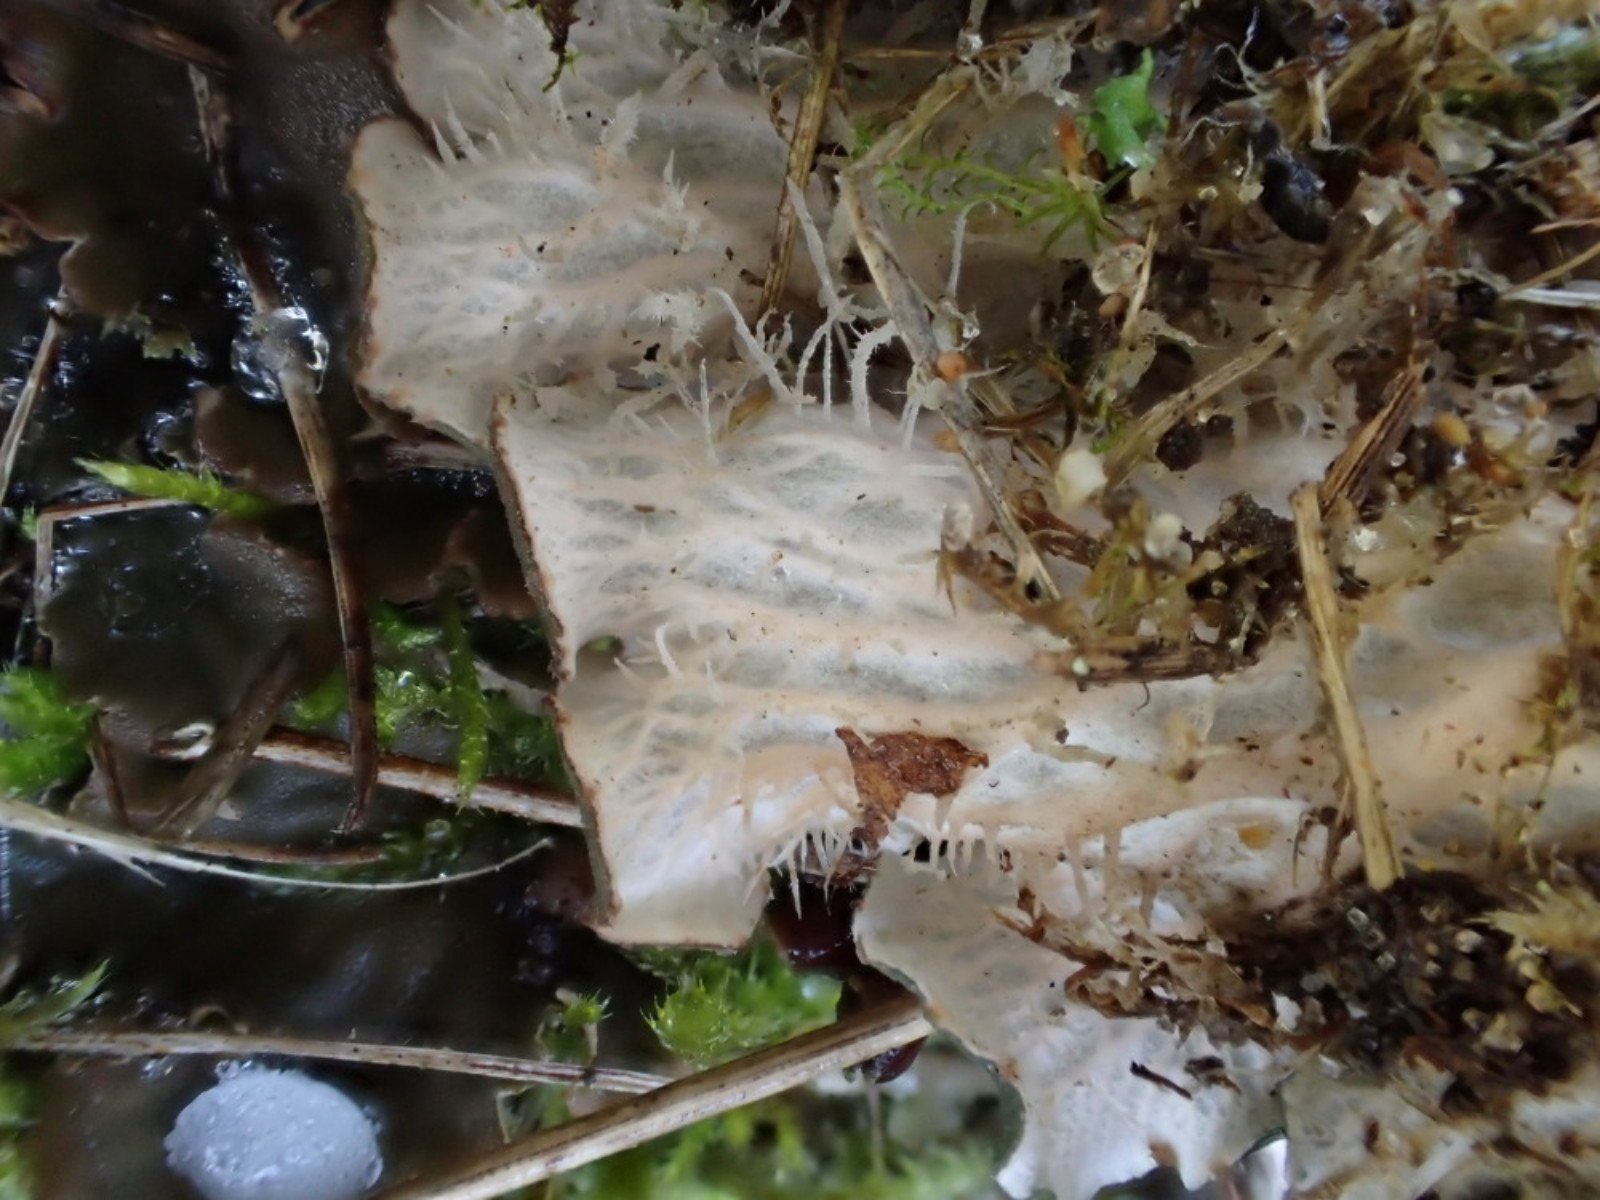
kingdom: Fungi
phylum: Ascomycota
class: Lecanoromycetes
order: Peltigerales
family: Peltigeraceae
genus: Peltigera
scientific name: Peltigera membranacea
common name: tynd skjoldlav
